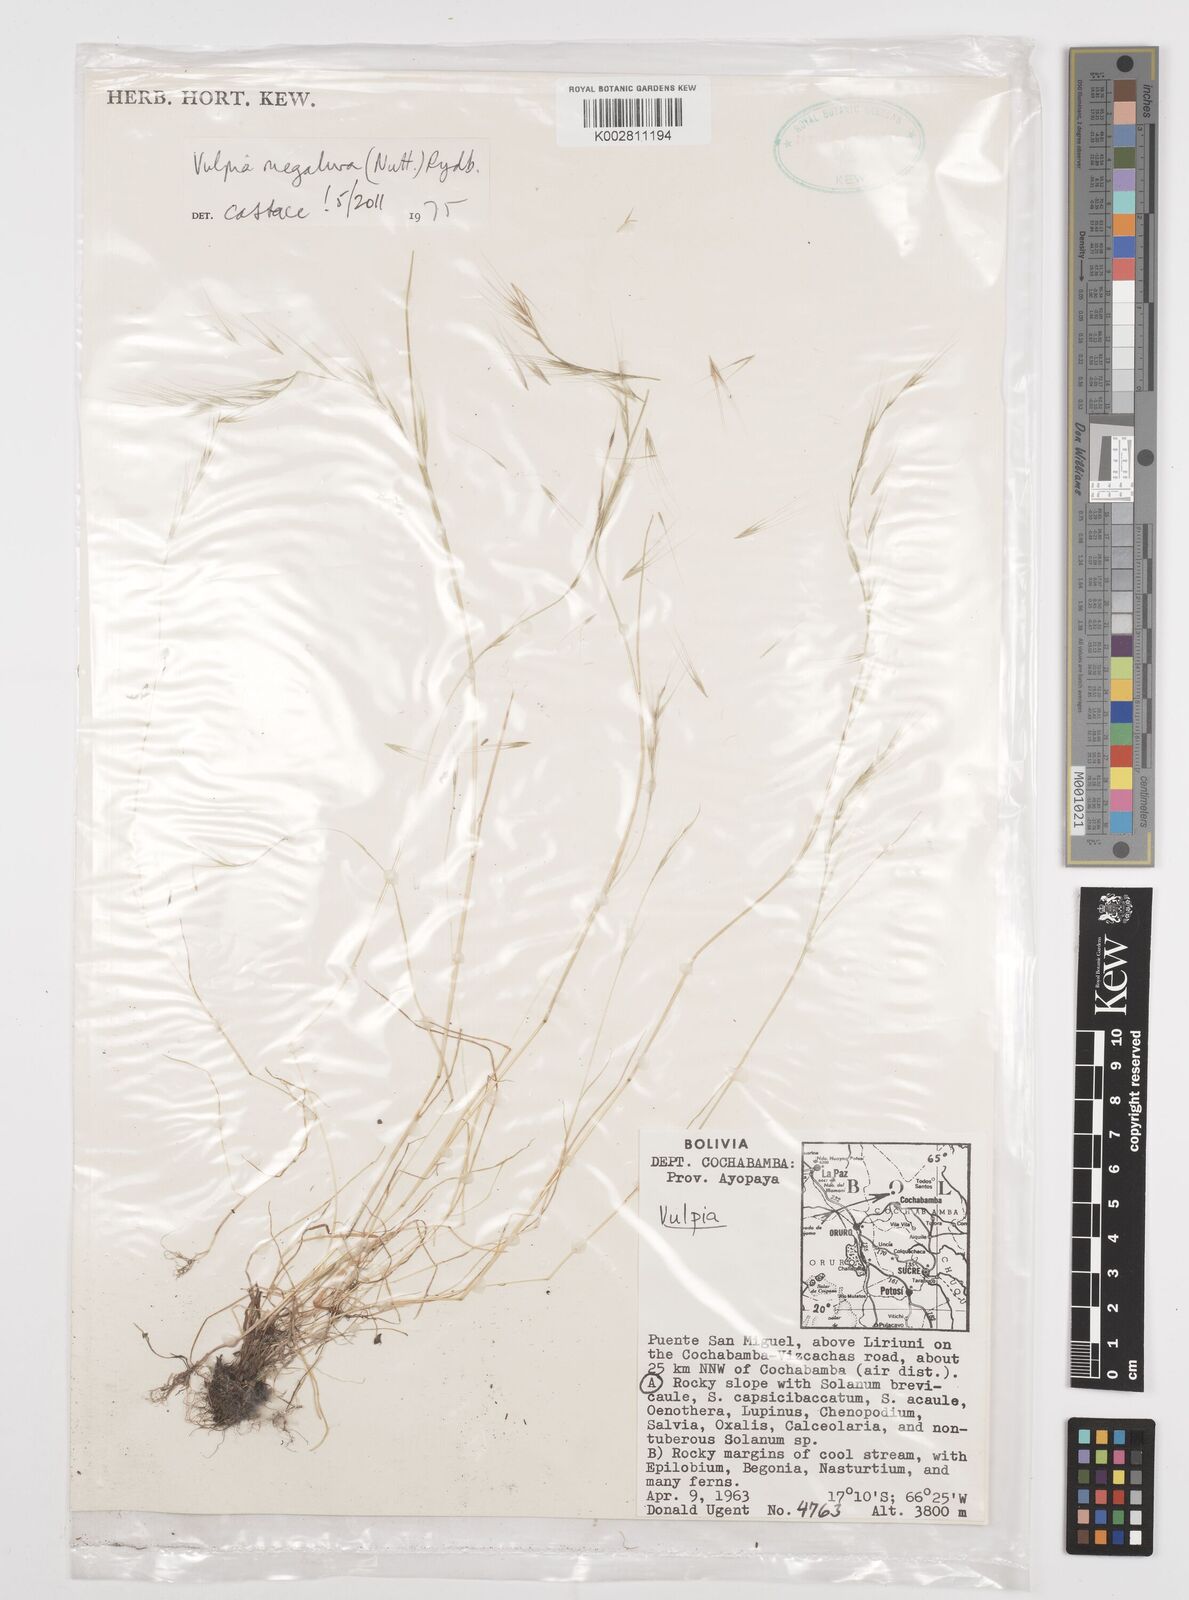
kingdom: Plantae
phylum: Tracheophyta
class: Liliopsida
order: Poales
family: Poaceae
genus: Festuca
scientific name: Festuca myuros
